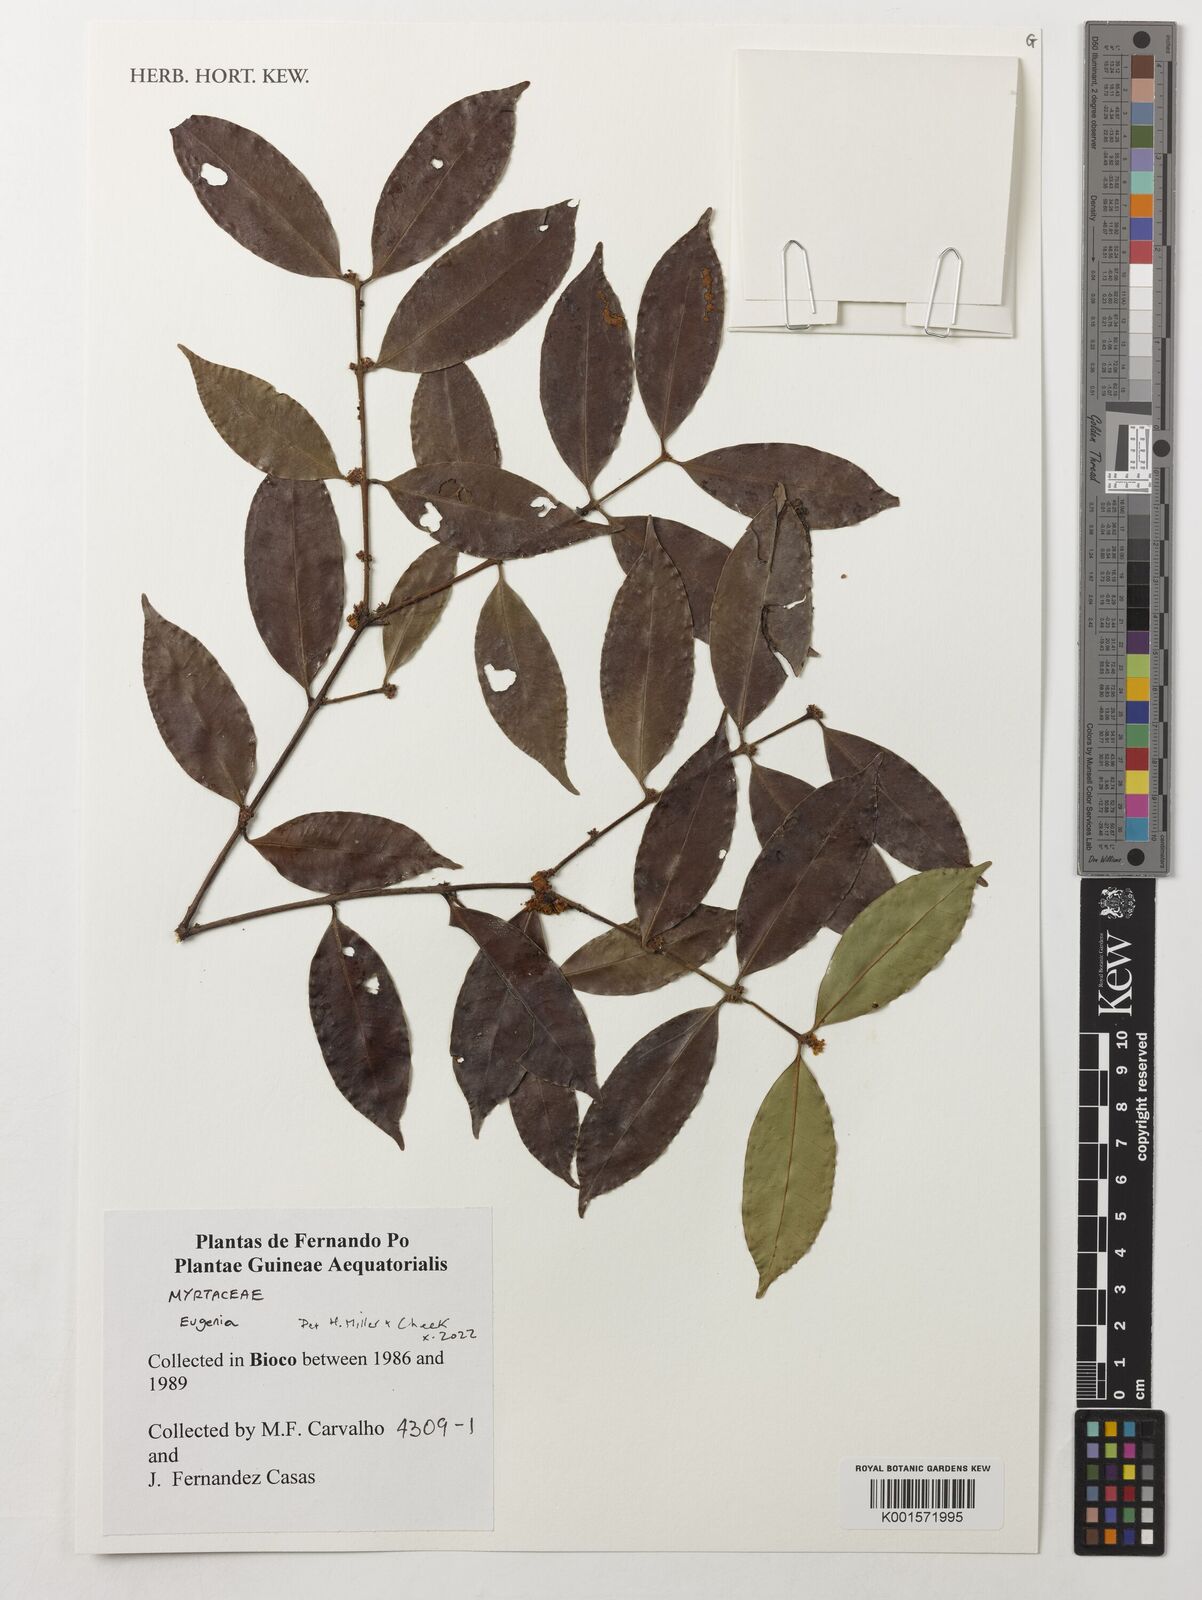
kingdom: Plantae
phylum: Tracheophyta
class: Magnoliopsida
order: Myrtales
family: Myrtaceae
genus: Eugenia
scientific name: Eugenia
